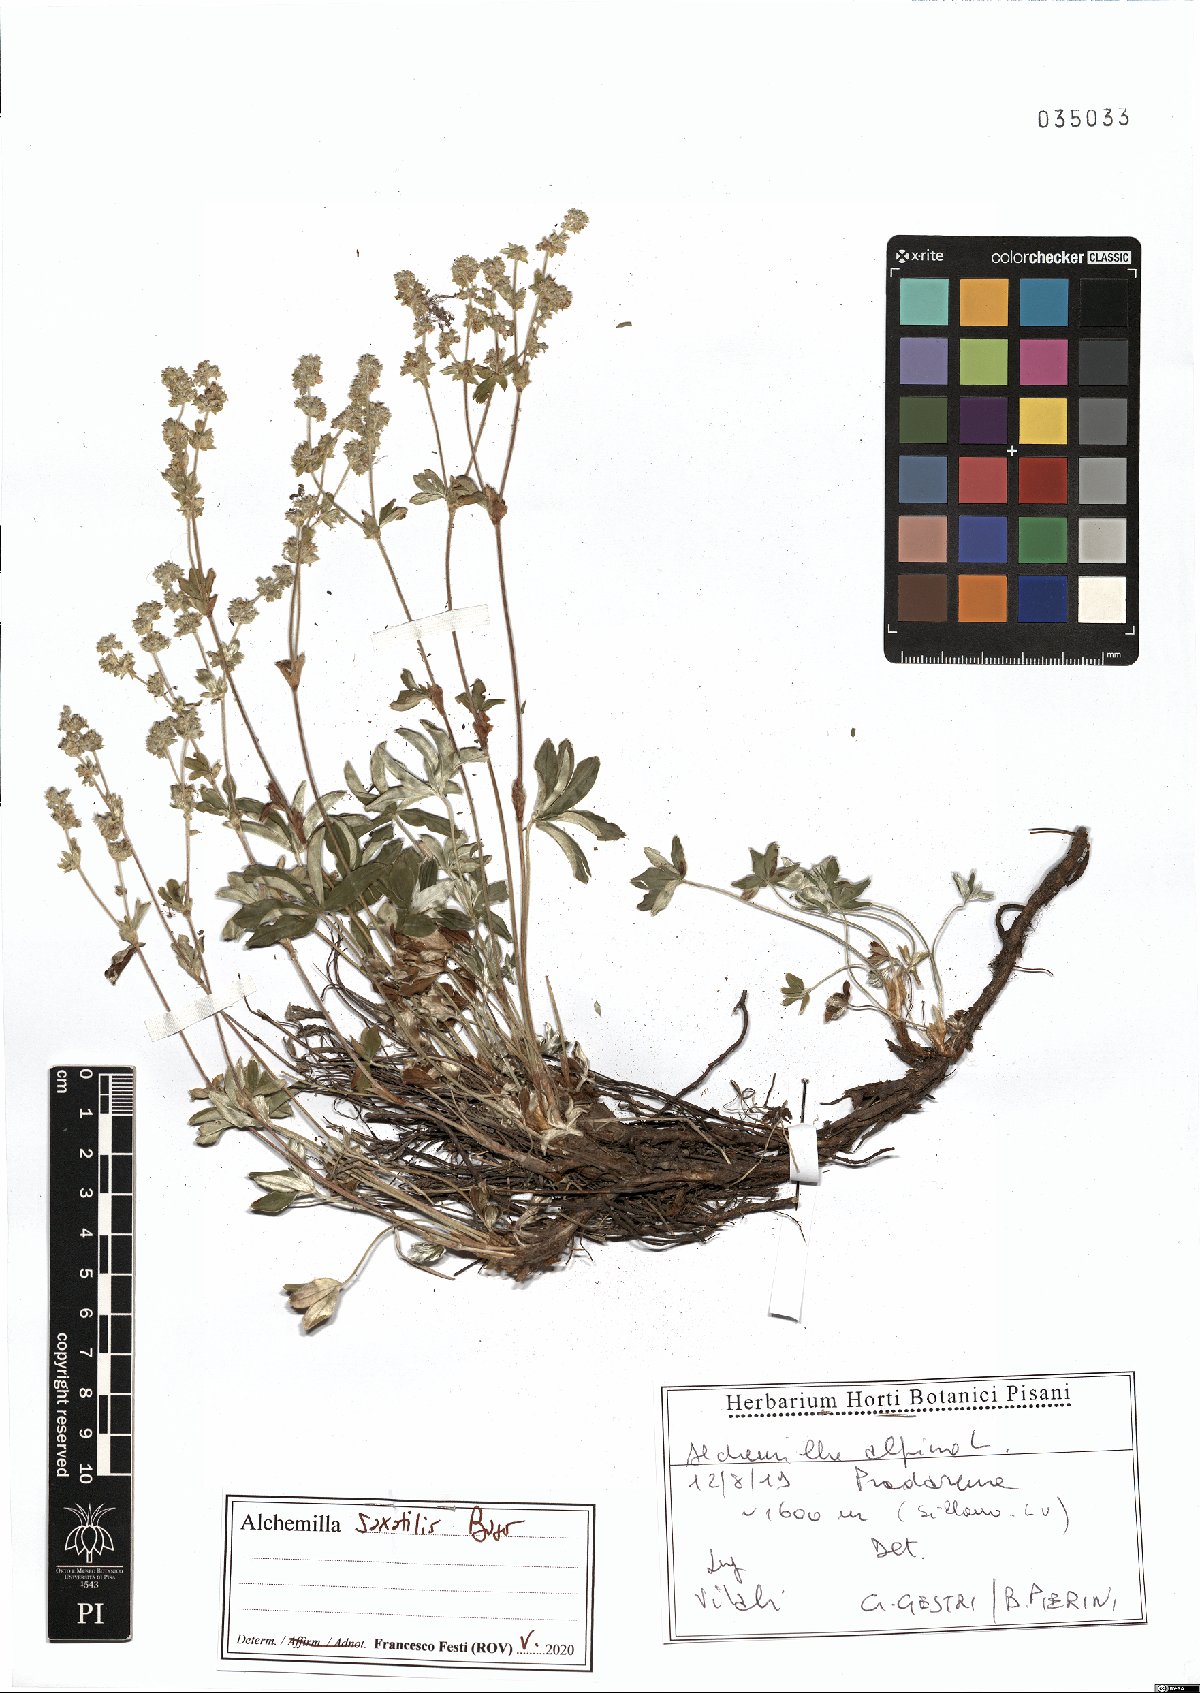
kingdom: Plantae
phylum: Tracheophyta
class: Magnoliopsida
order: Rosales
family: Rosaceae
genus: Alchemilla
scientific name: Alchemilla saxatilis
